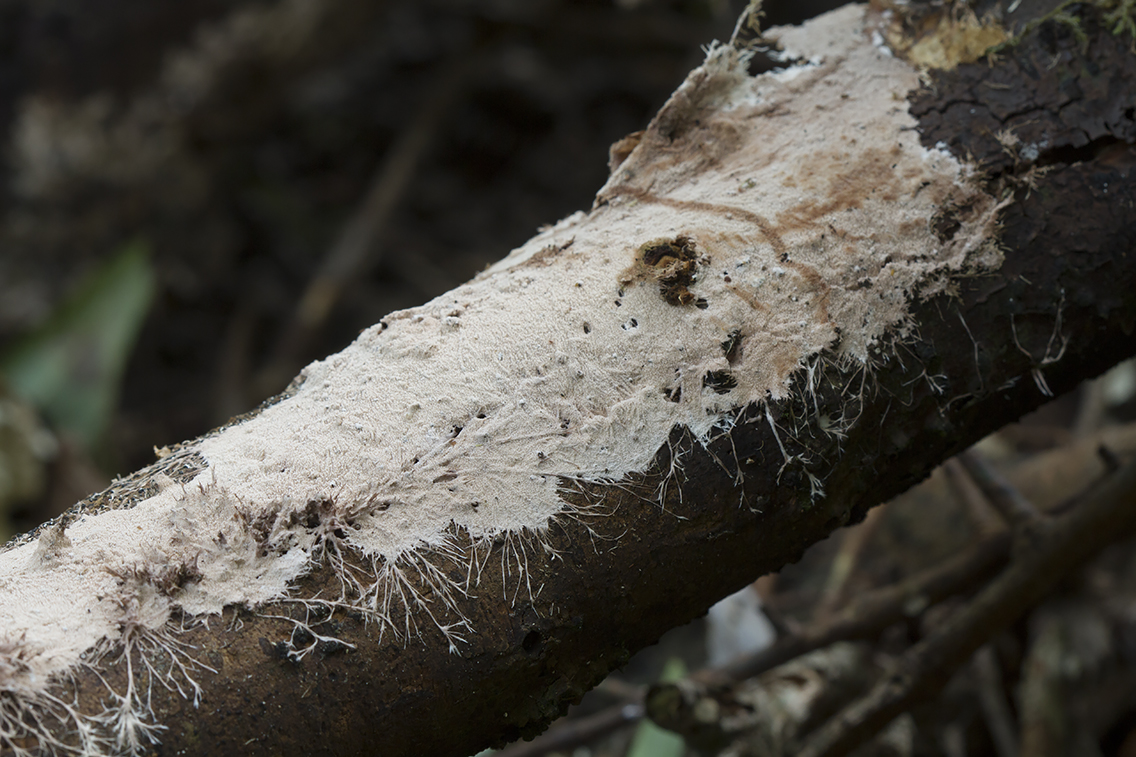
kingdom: Fungi
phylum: Basidiomycota
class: Agaricomycetes
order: Polyporales
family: Steccherinaceae
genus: Steccherinum
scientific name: Steccherinum fimbriatum
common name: trådet skønpig
